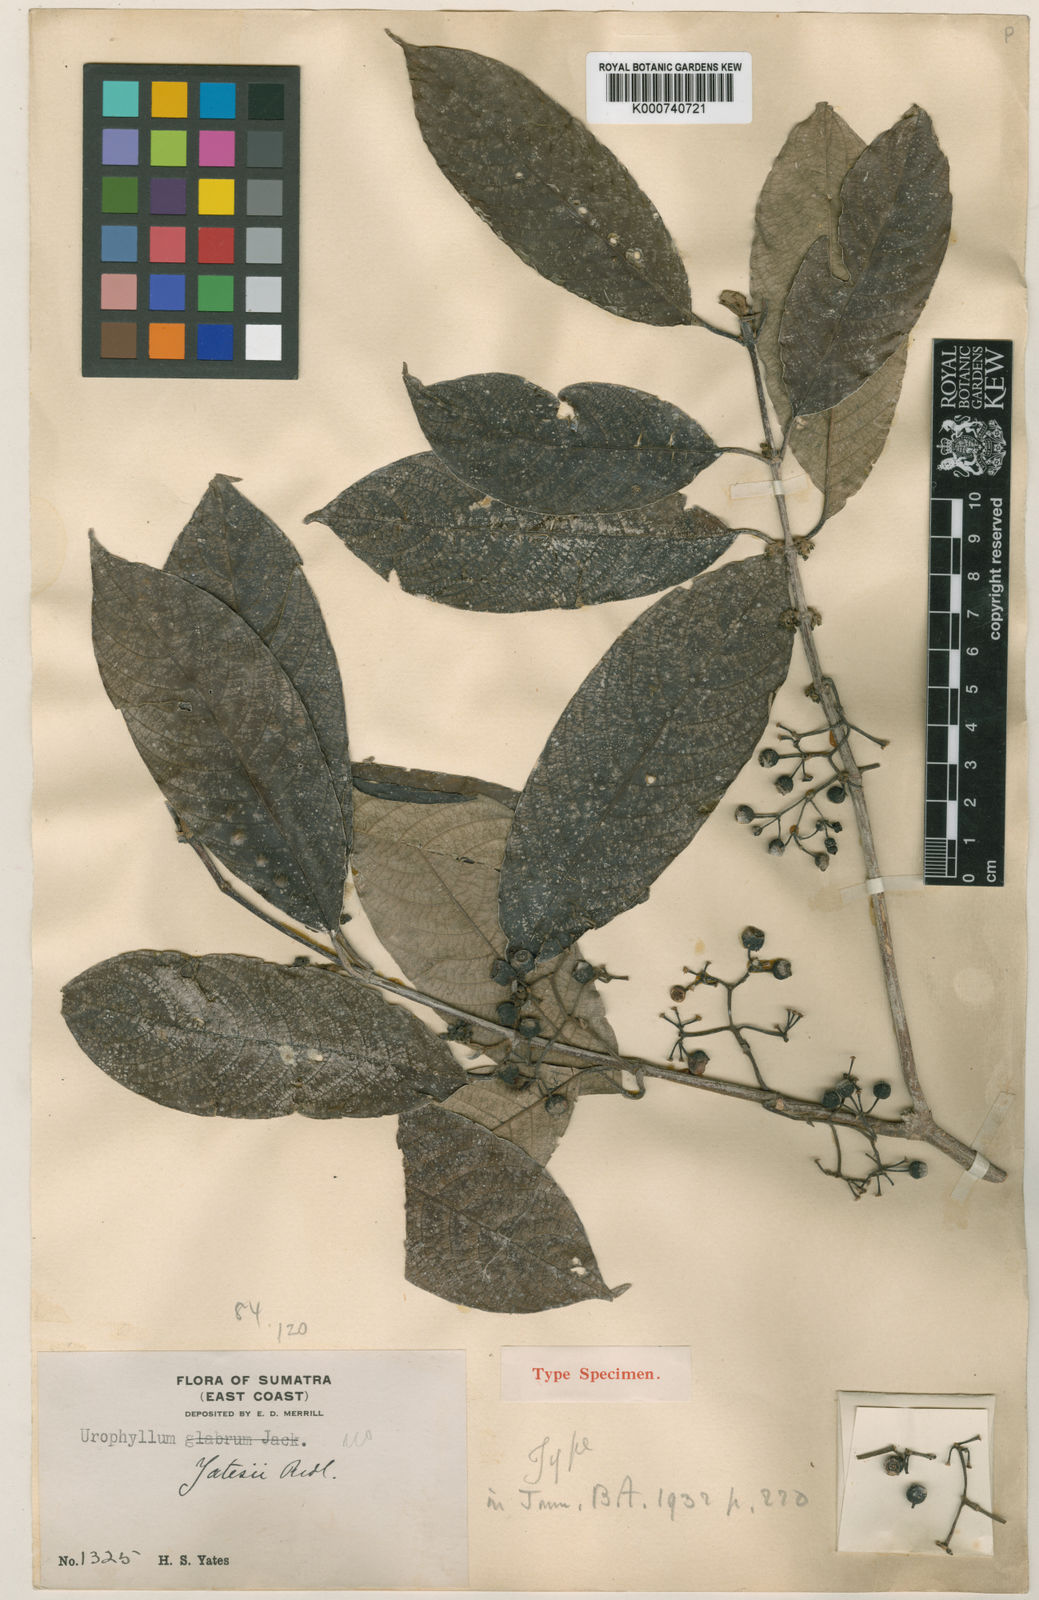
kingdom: Plantae
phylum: Tracheophyta
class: Magnoliopsida
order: Gentianales
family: Rubiaceae
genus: Urophyllum
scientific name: Urophyllum grandifolium
